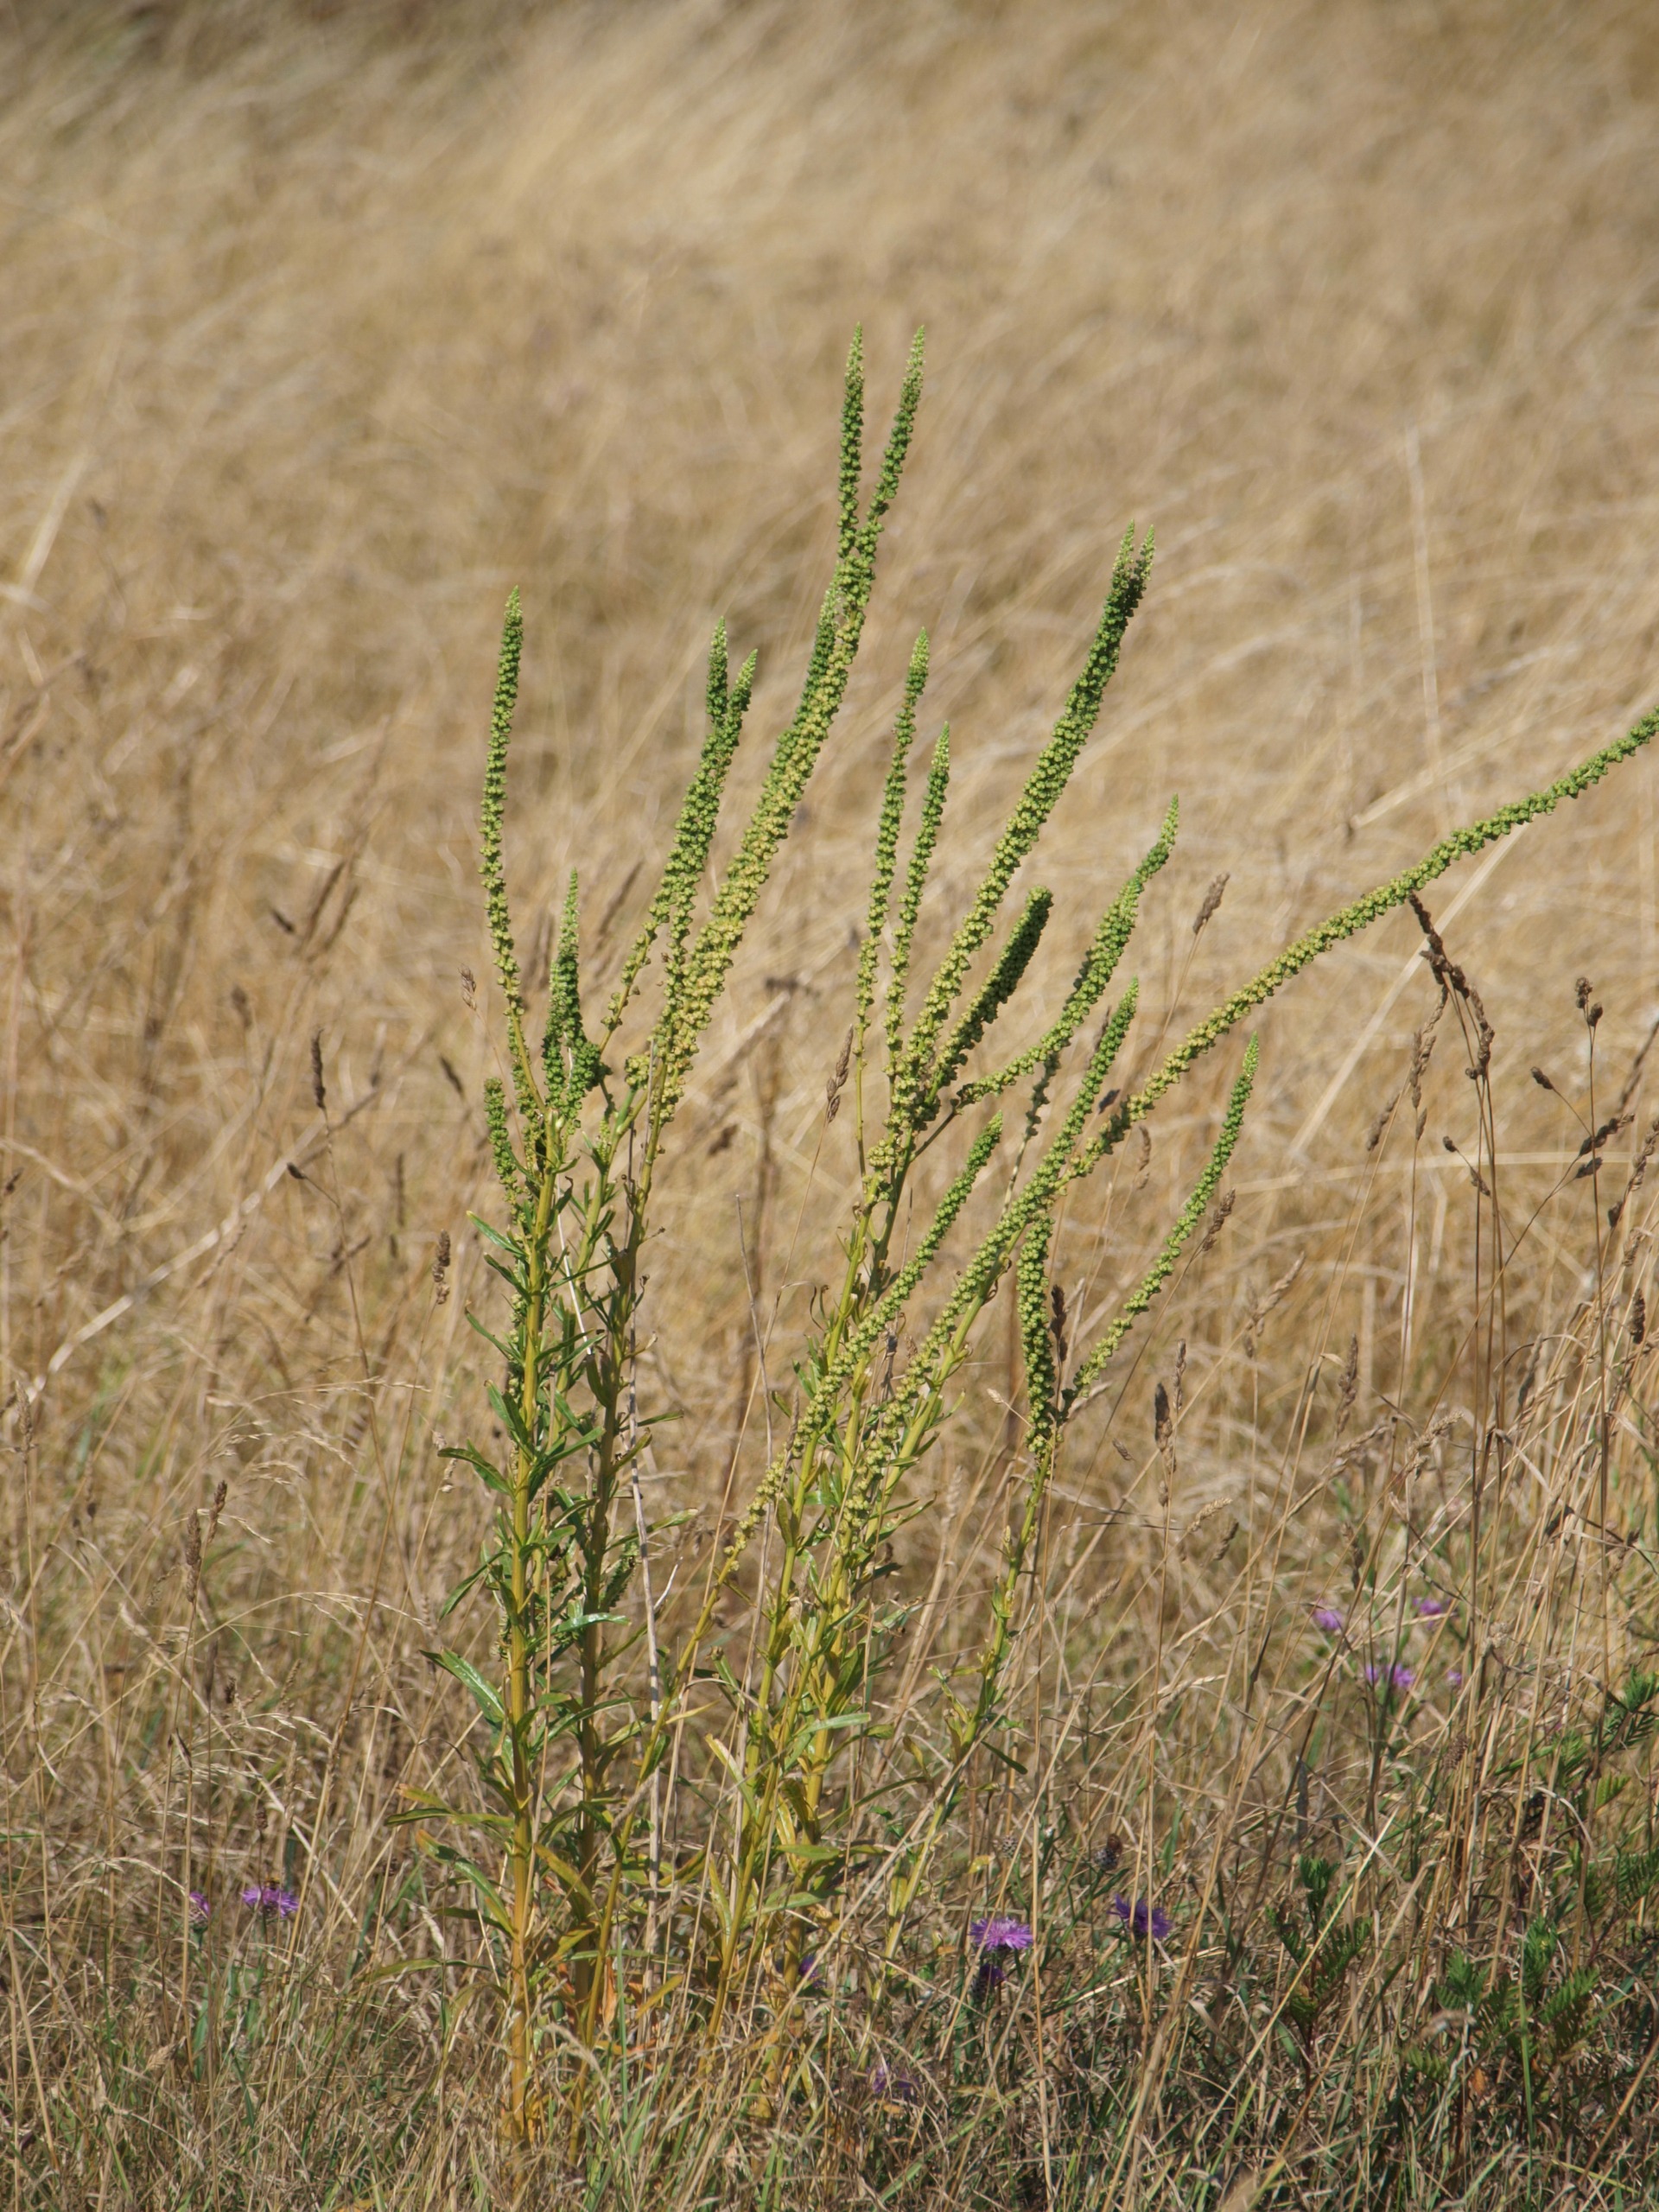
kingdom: Plantae
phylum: Tracheophyta
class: Magnoliopsida
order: Brassicales
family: Resedaceae
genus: Reseda
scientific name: Reseda luteola
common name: Farve-reseda
